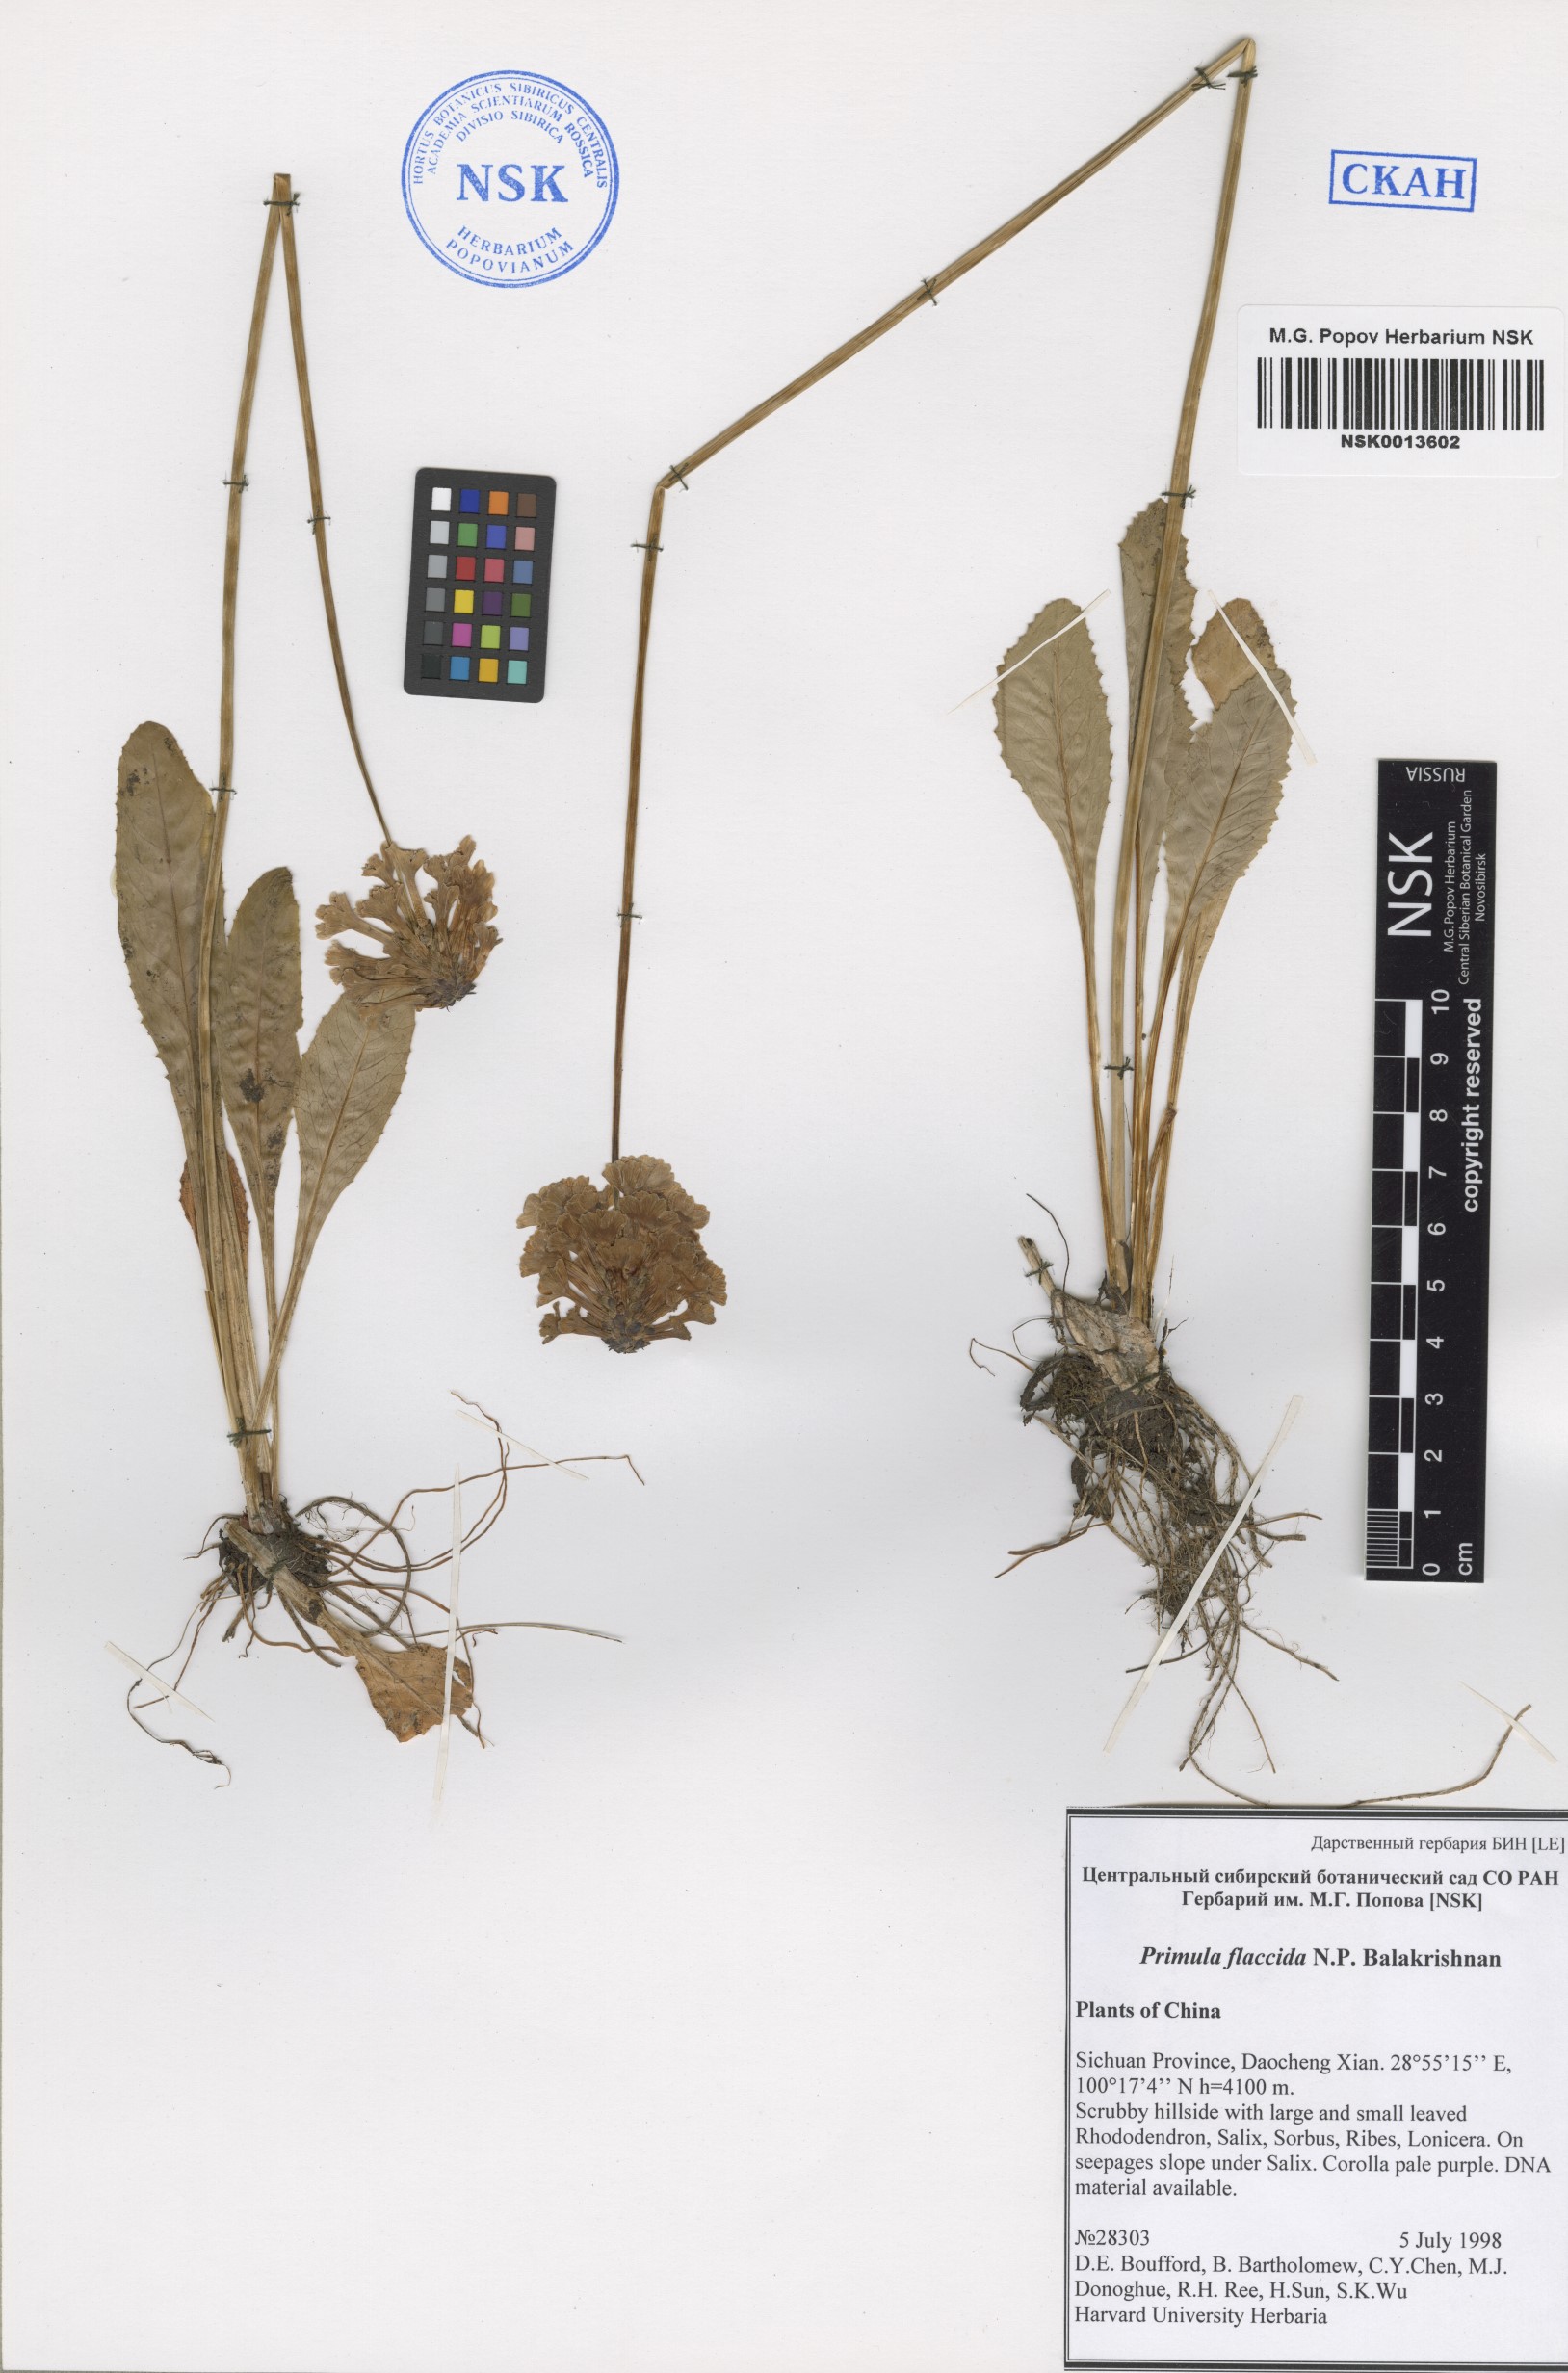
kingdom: Plantae
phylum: Tracheophyta
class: Magnoliopsida
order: Ericales
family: Primulaceae
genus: Primula
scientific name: Primula flaccida
